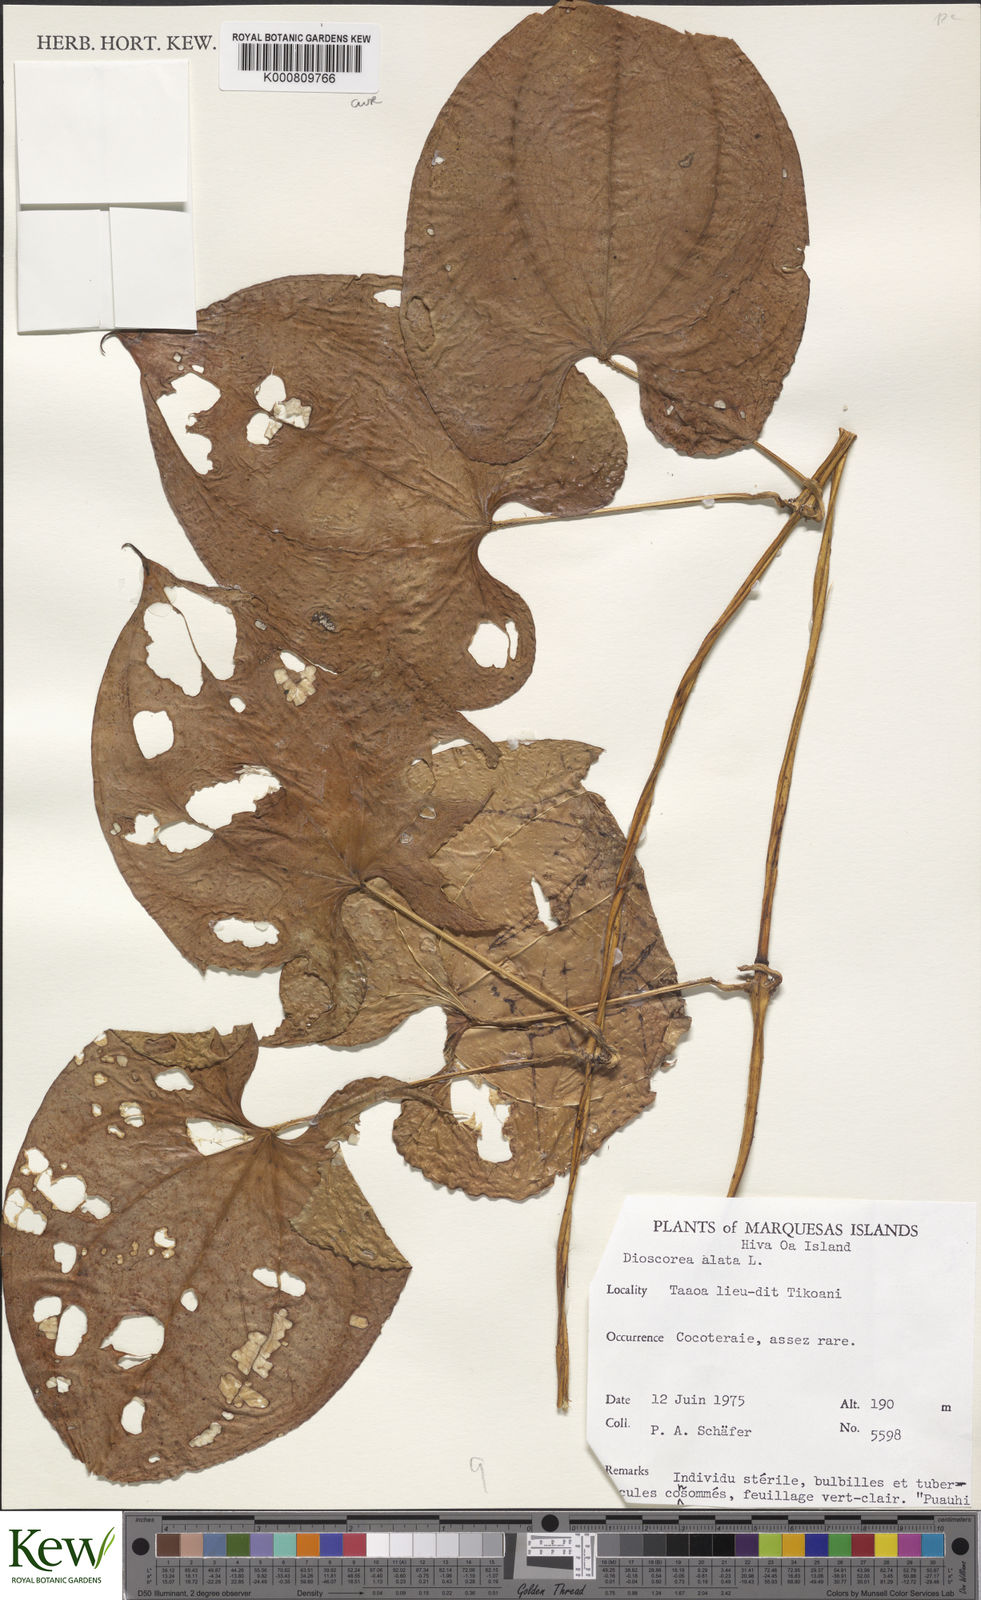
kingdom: Plantae
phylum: Tracheophyta
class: Liliopsida
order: Dioscoreales
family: Dioscoreaceae
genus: Dioscorea
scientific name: Dioscorea alata
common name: Water yam
